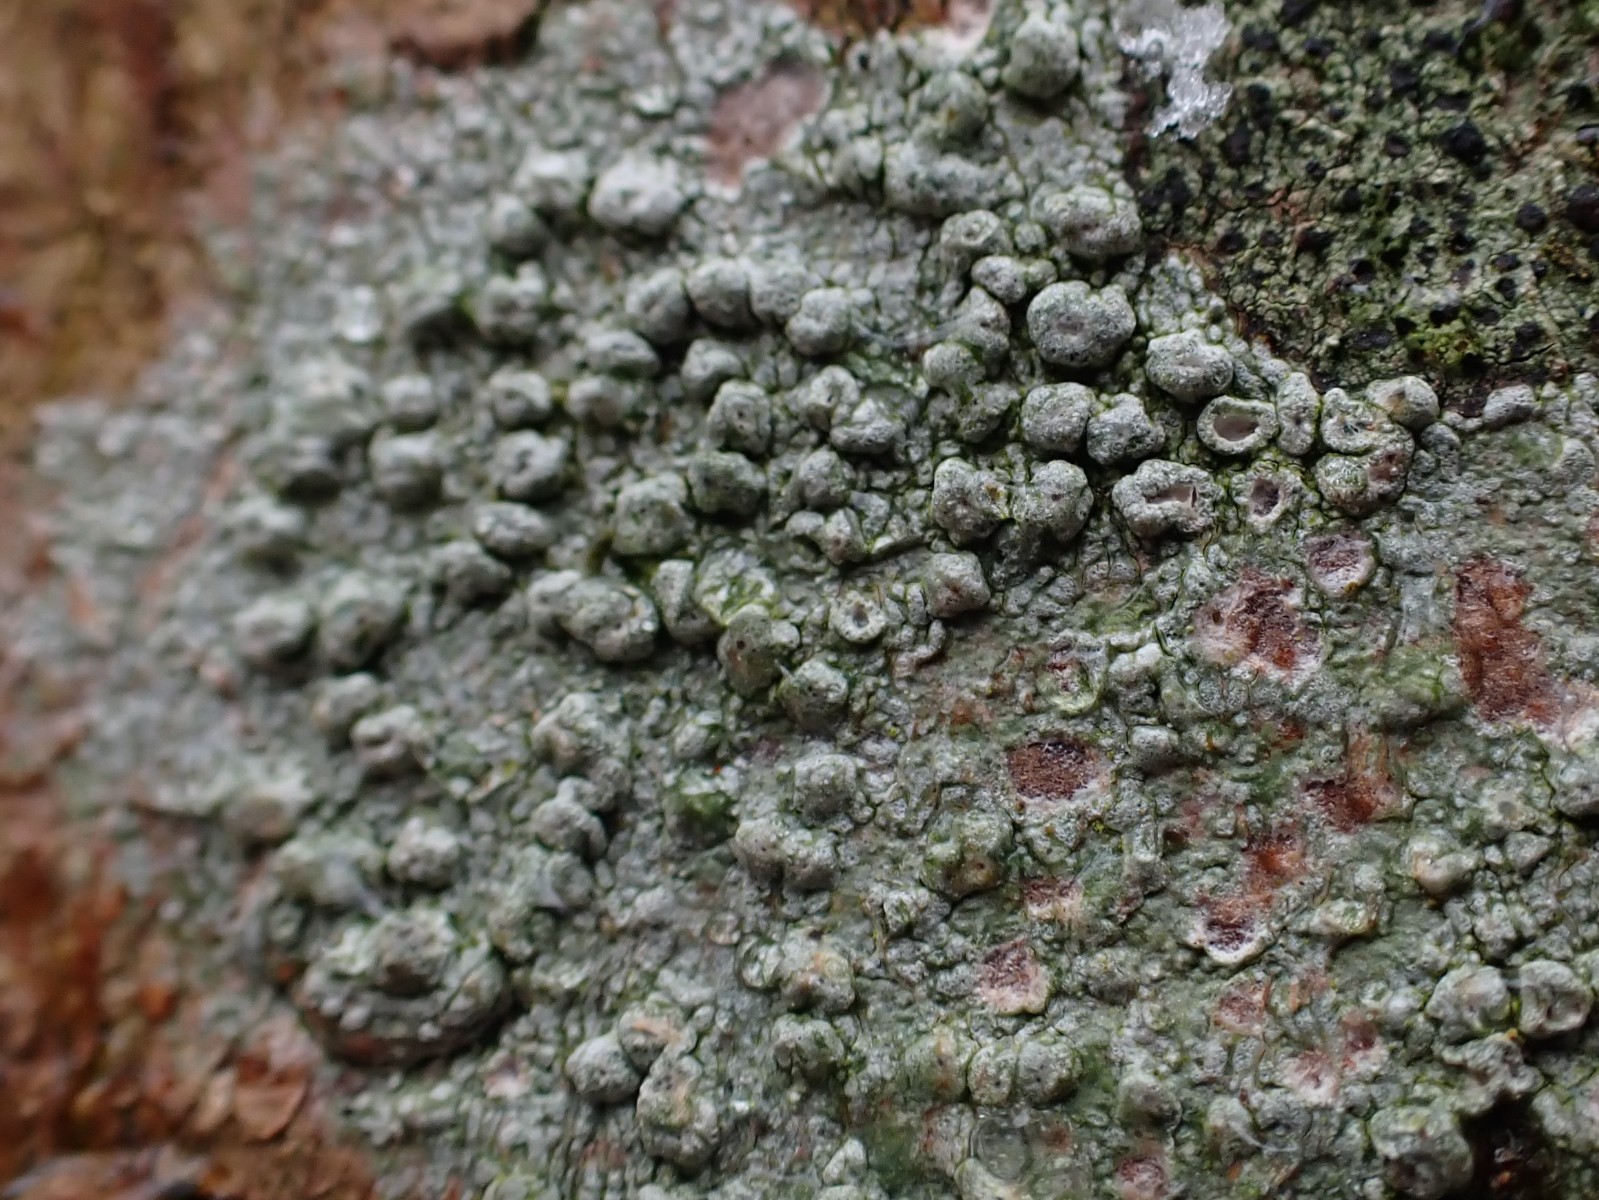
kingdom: Fungi
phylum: Ascomycota
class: Lecanoromycetes
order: Pertusariales
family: Pertusariaceae
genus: Pertusaria
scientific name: Pertusaria hymenea
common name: åben prikvortelav
